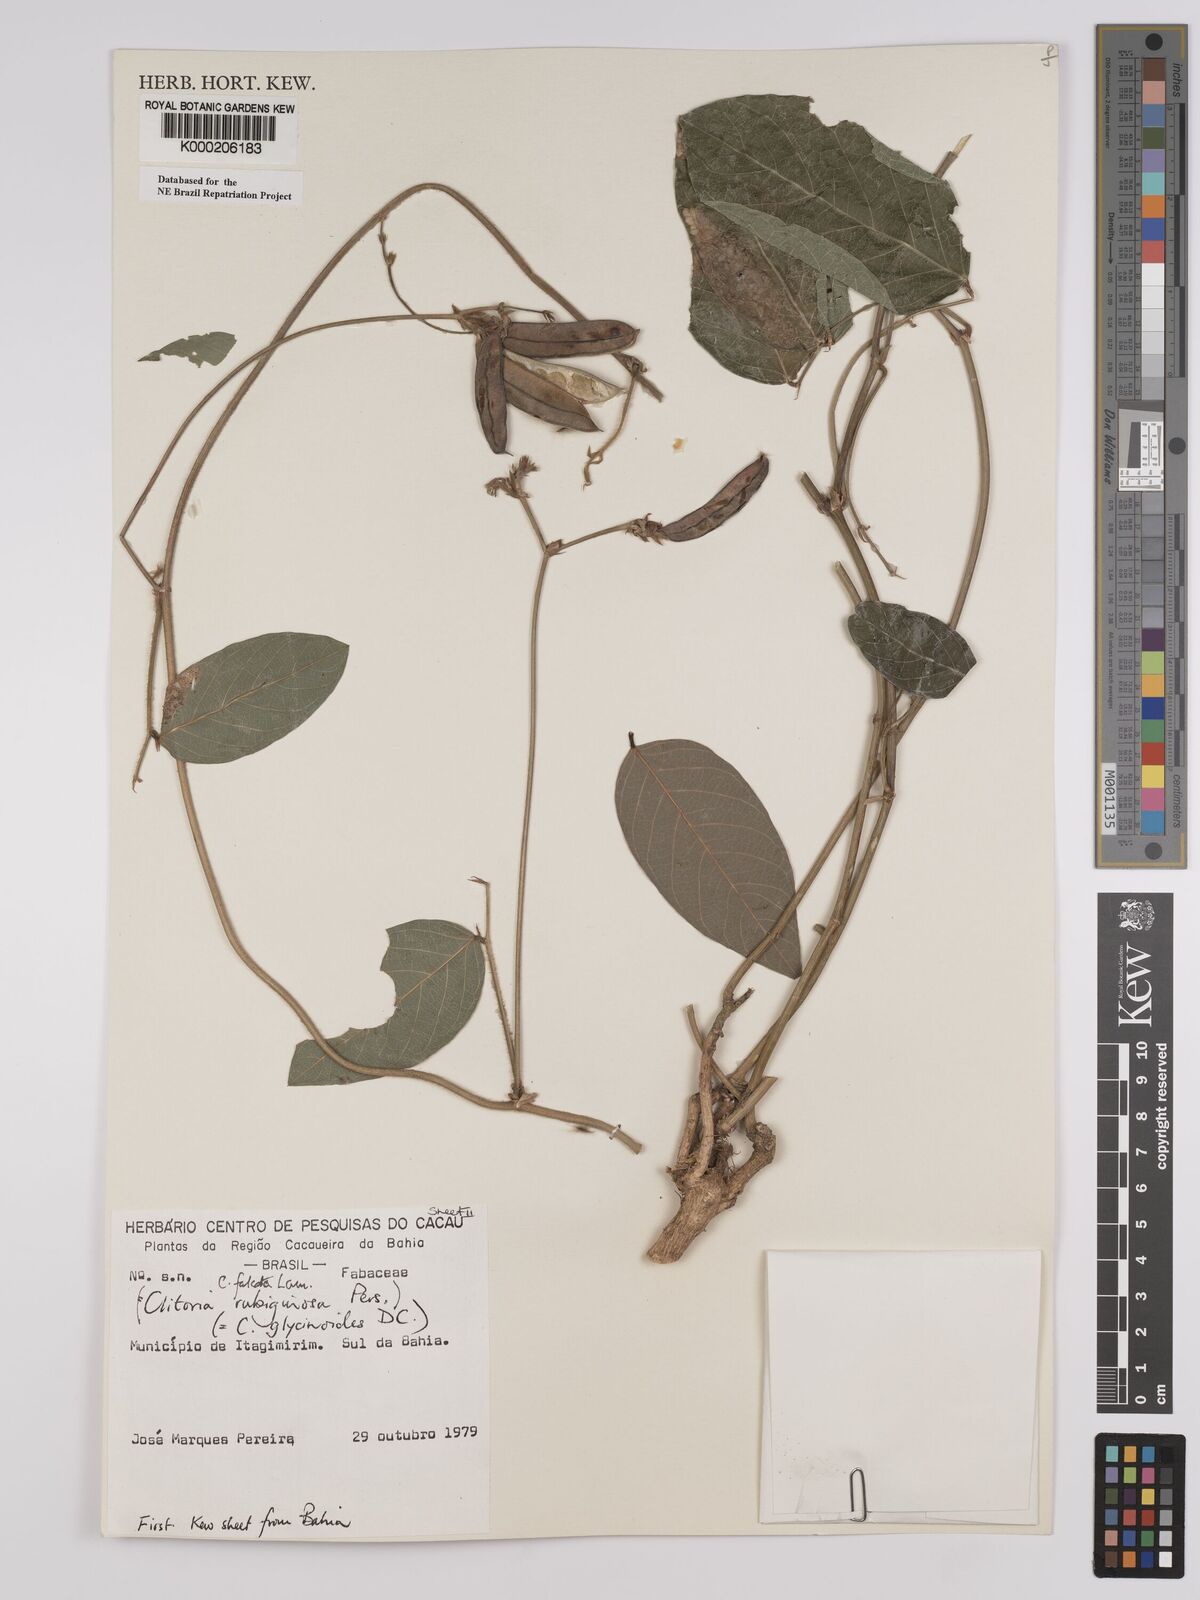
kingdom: Plantae
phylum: Tracheophyta
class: Magnoliopsida
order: Fabales
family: Fabaceae
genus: Clitoria
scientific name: Clitoria falcata
